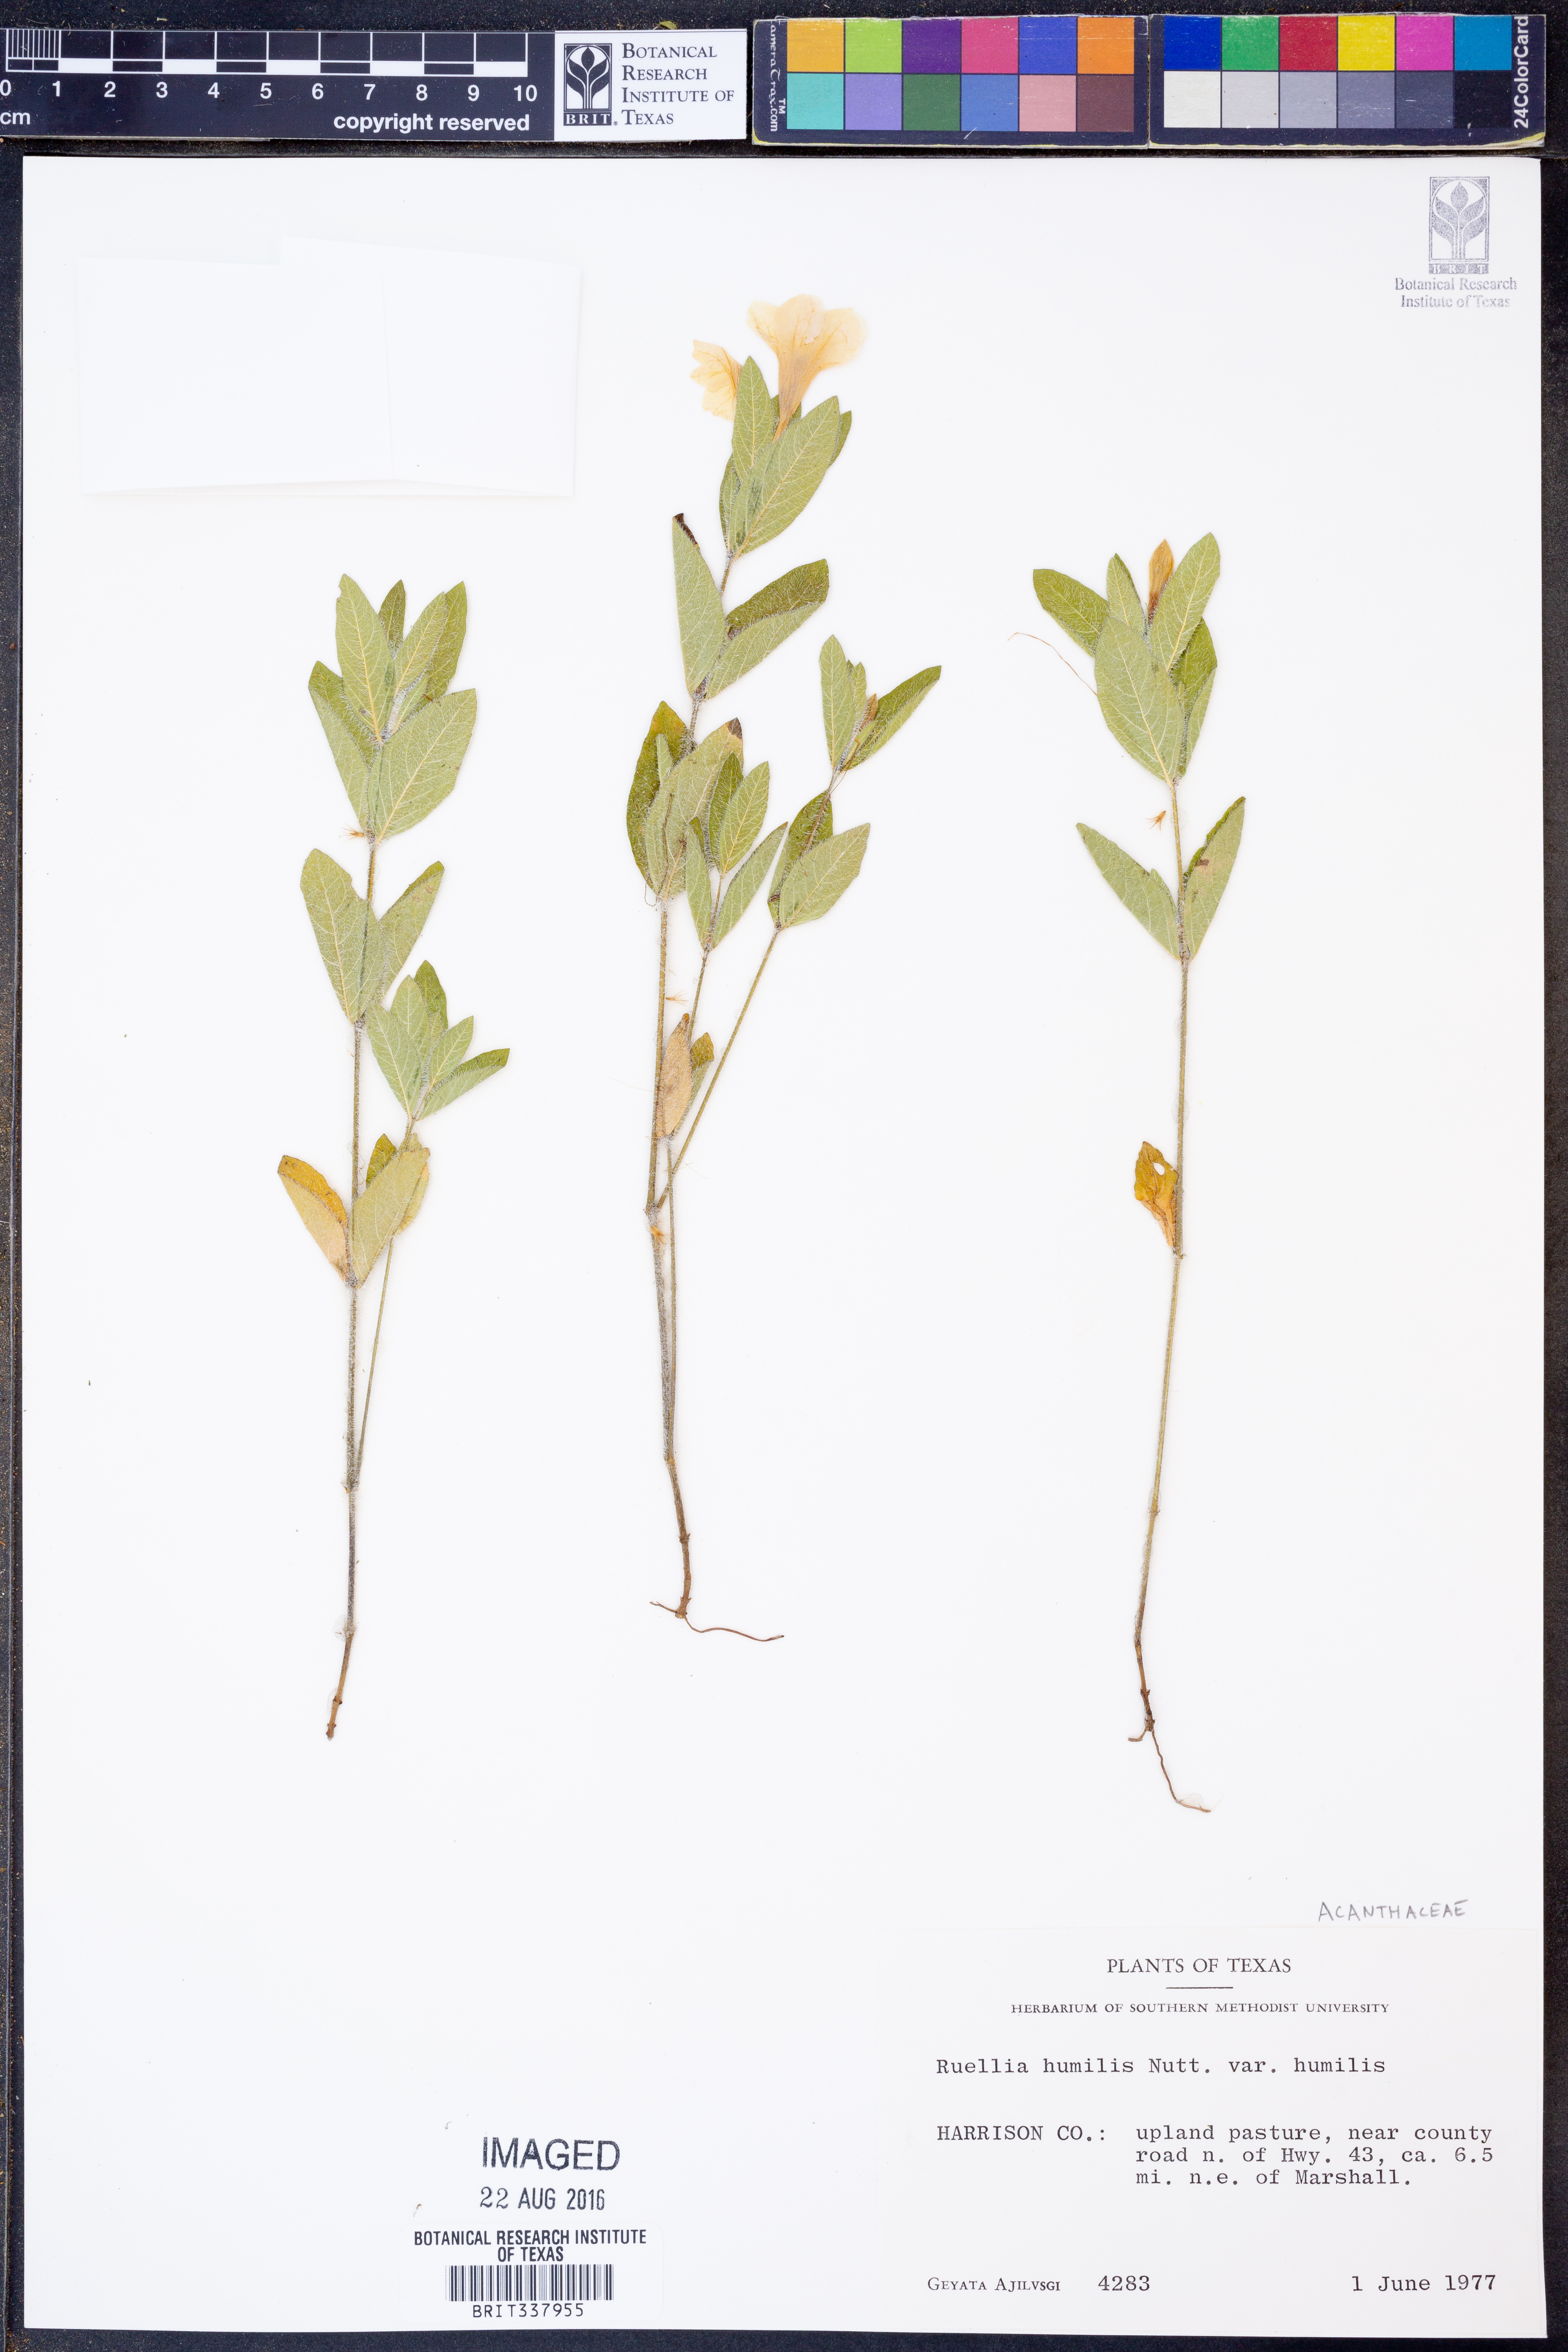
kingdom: Plantae
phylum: Tracheophyta
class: Magnoliopsida
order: Lamiales
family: Acanthaceae
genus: Ruellia
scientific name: Ruellia humilis
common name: Fringe-leaf ruellia
